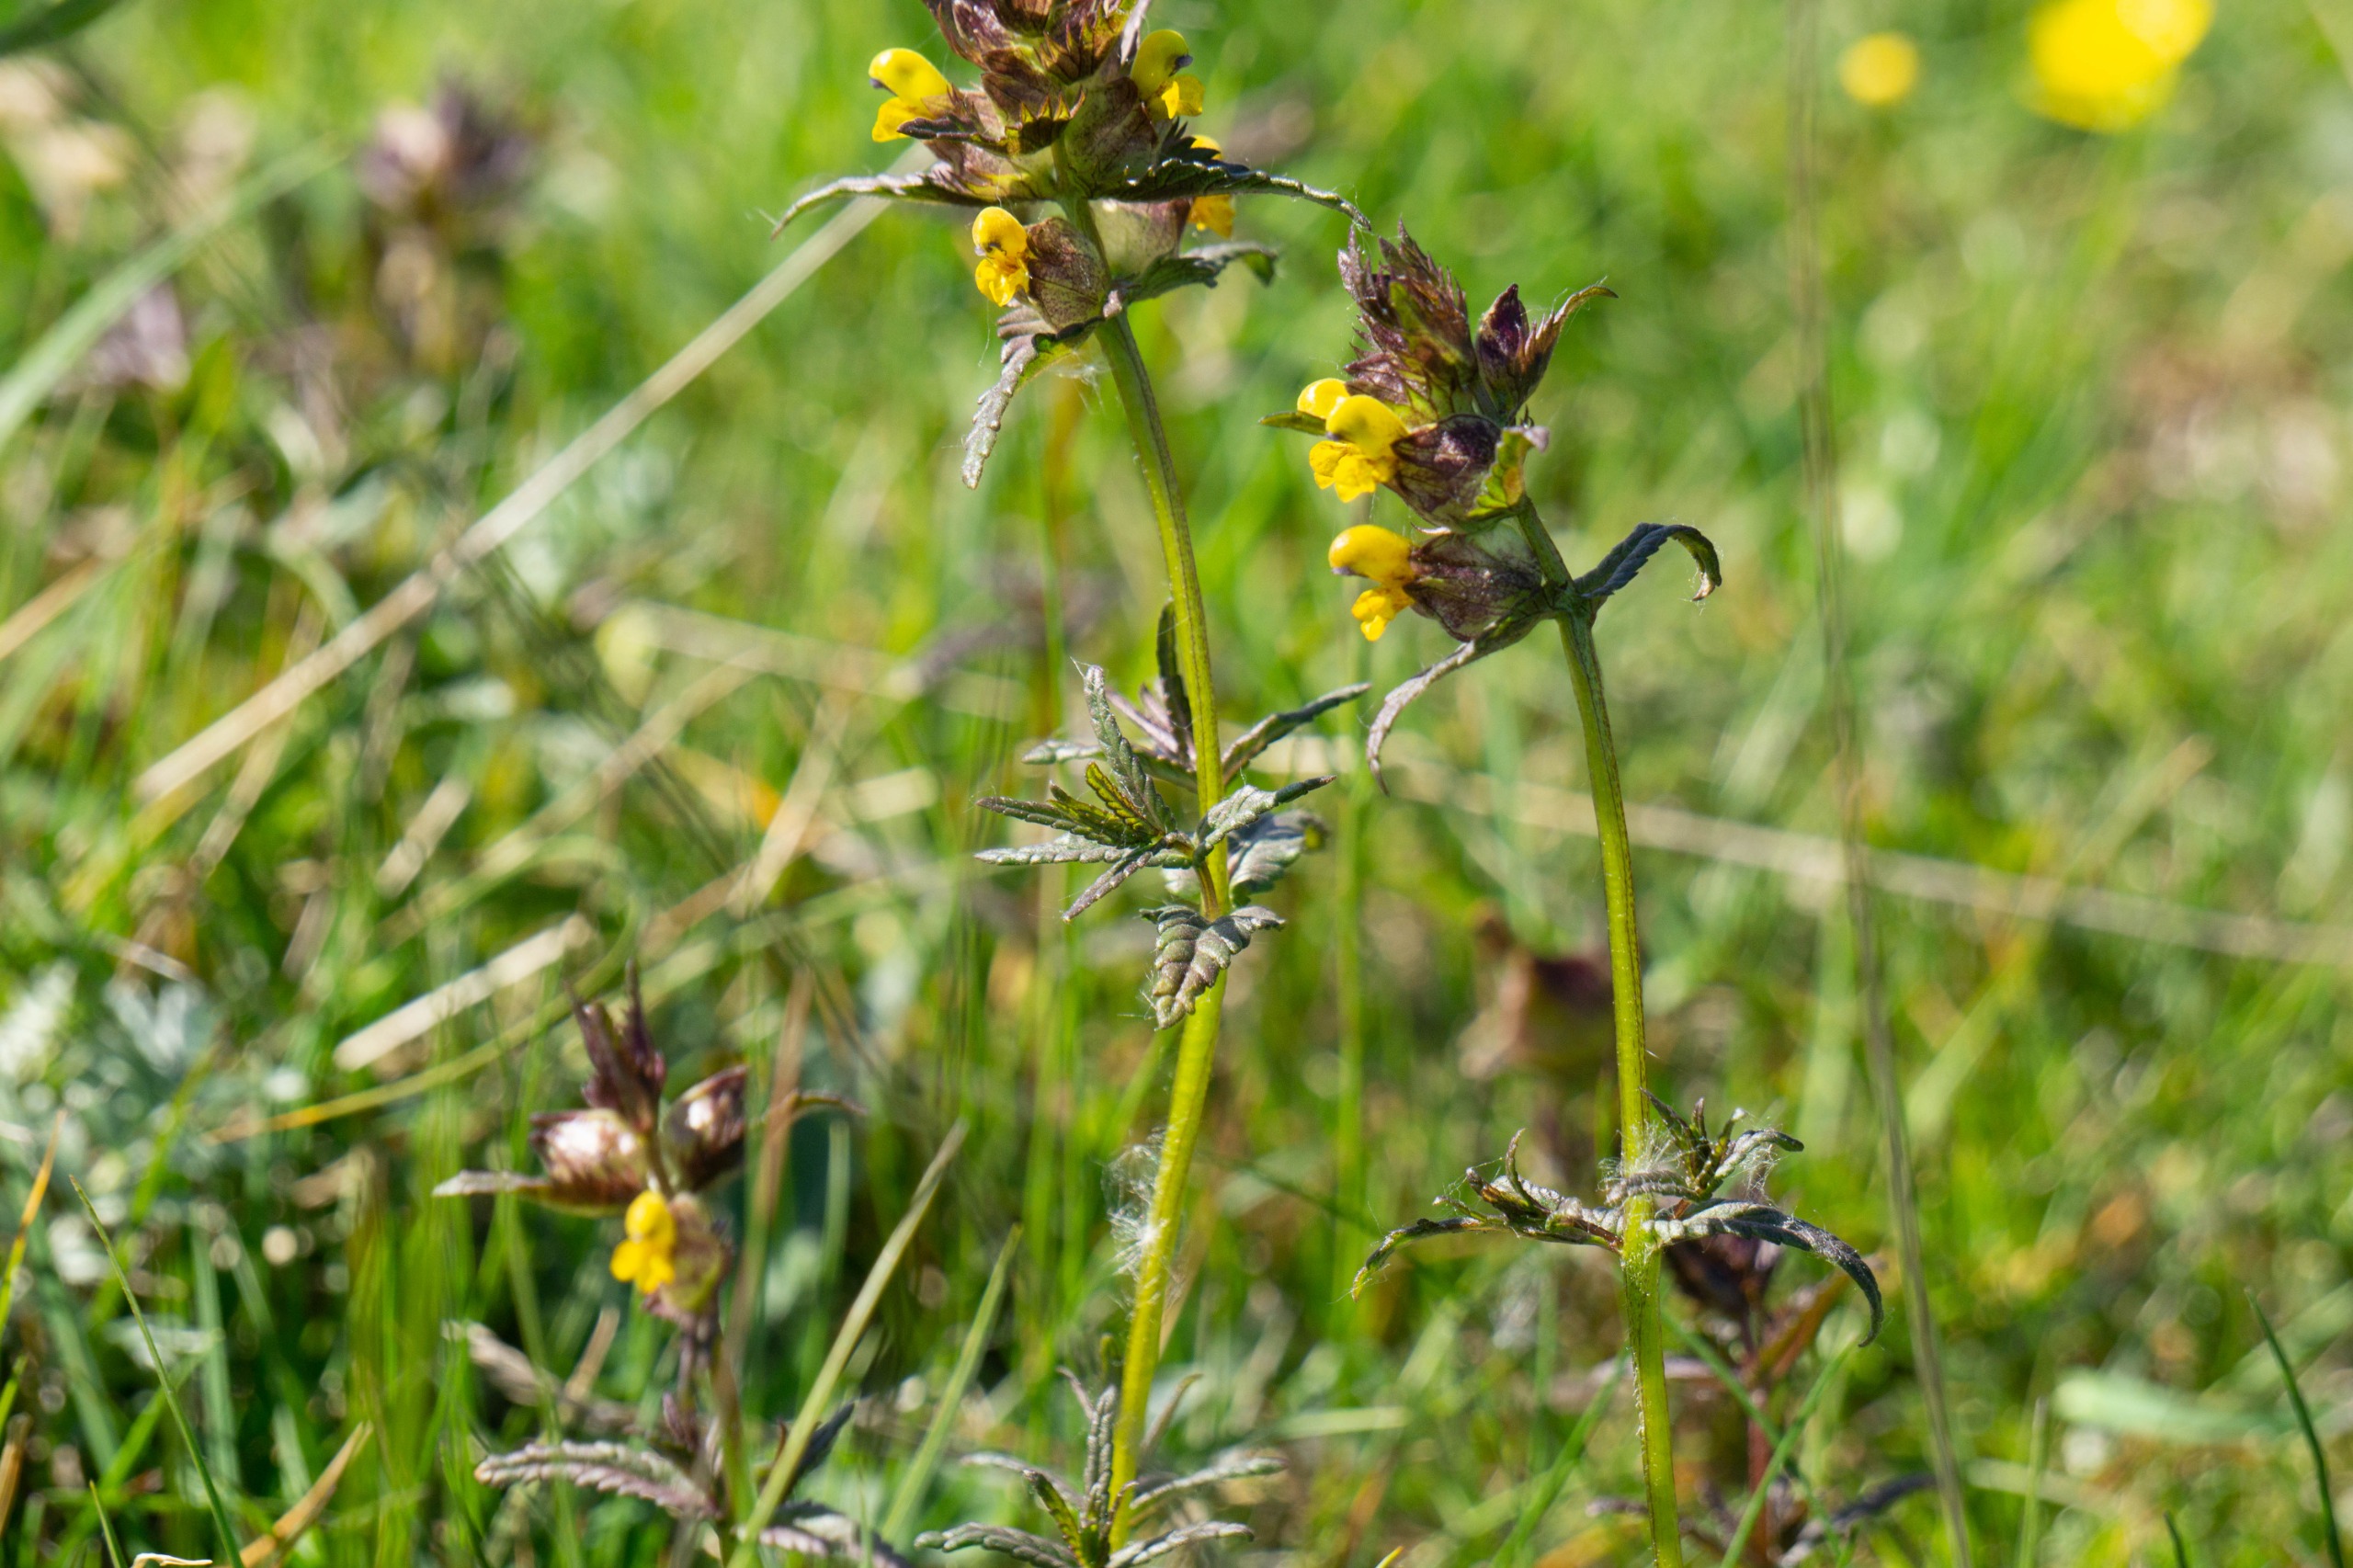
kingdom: Plantae
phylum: Tracheophyta
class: Magnoliopsida
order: Lamiales
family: Orobanchaceae
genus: Rhinanthus
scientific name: Rhinanthus minor
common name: Liden skjaller
